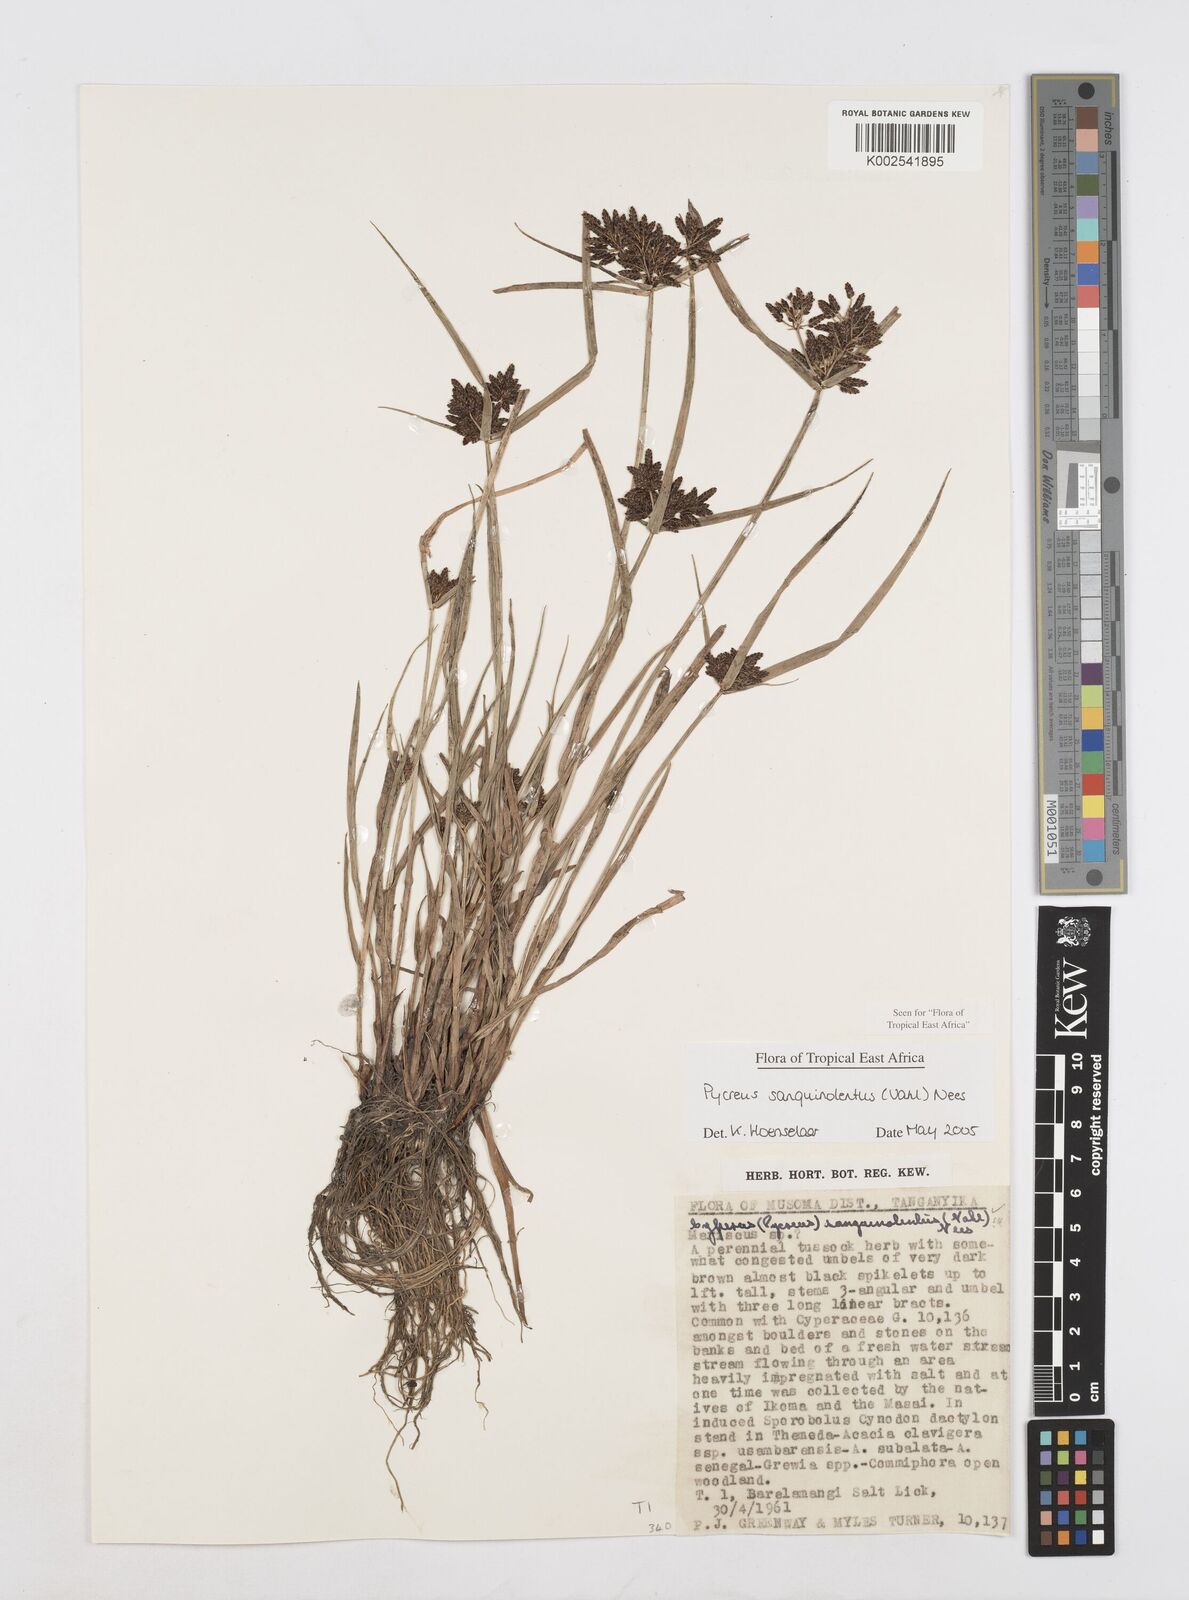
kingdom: Plantae
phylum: Tracheophyta
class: Liliopsida
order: Poales
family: Cyperaceae
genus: Cyperus
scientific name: Cyperus sanguinolentus
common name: Purpleglume flatsedge
